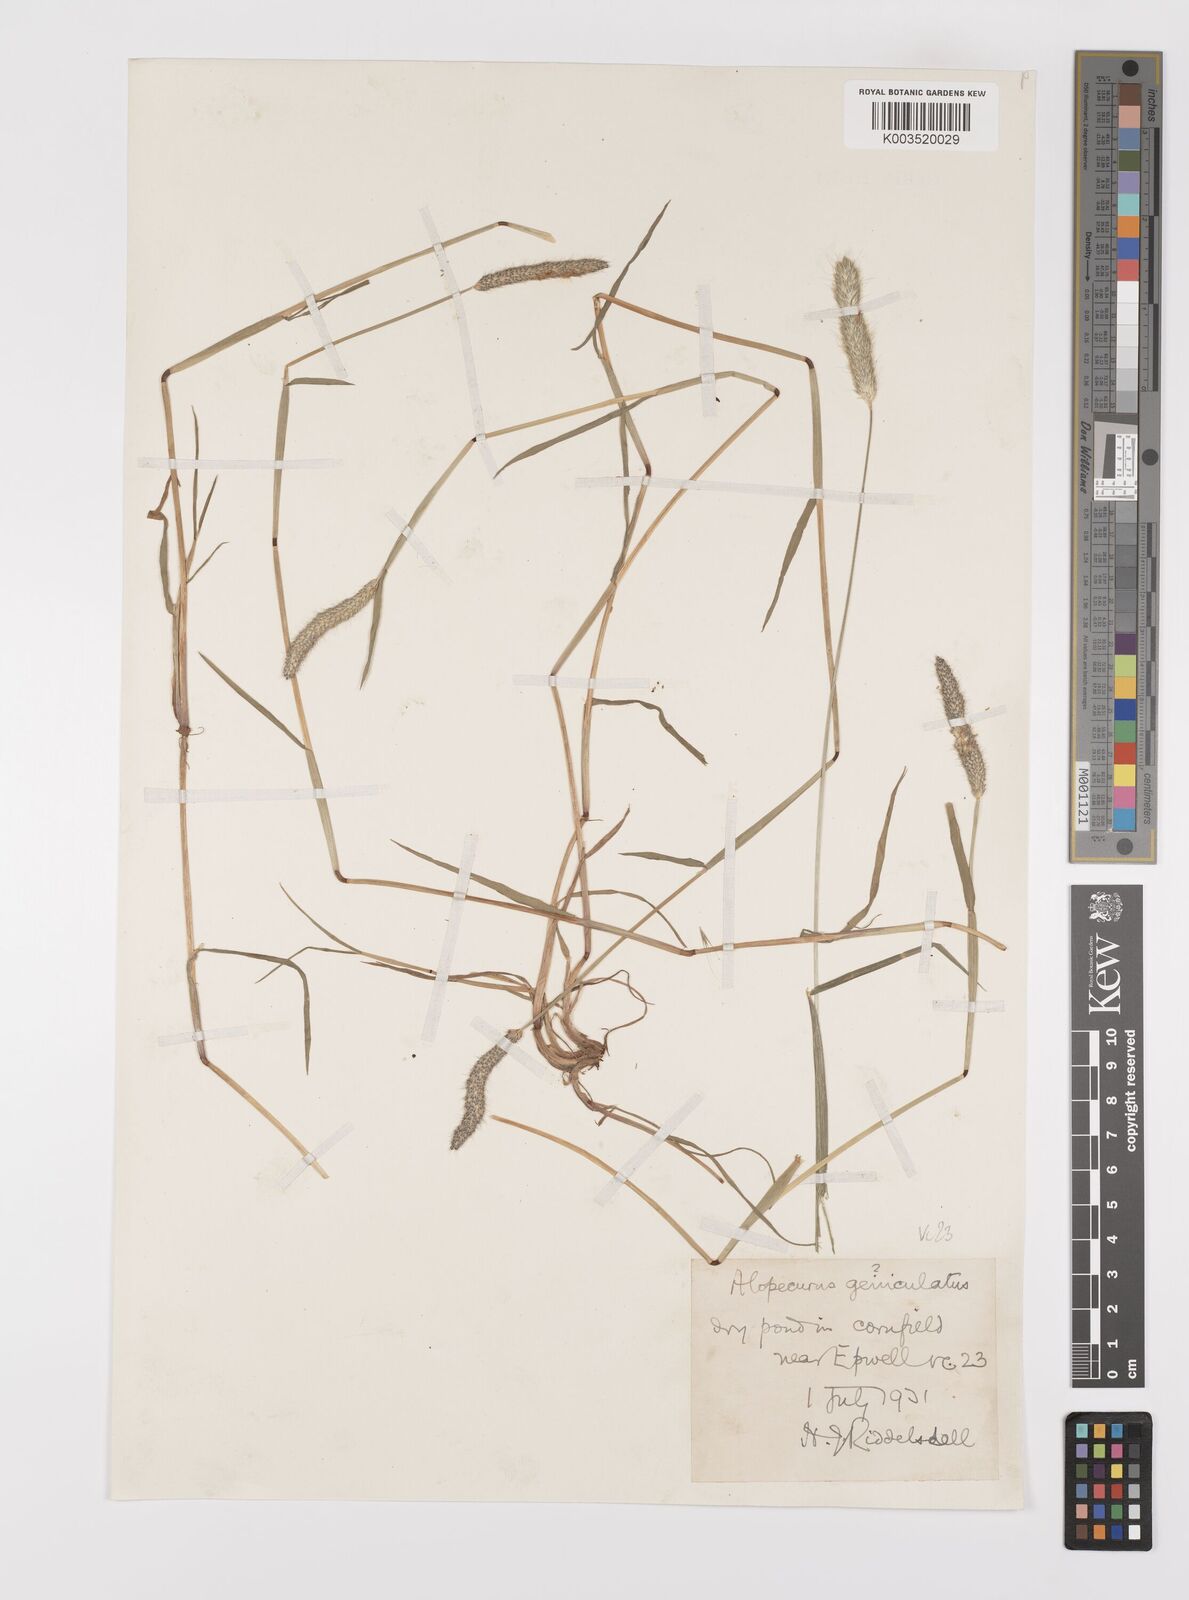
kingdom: Plantae
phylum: Tracheophyta
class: Liliopsida
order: Poales
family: Poaceae
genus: Alopecurus
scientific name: Alopecurus brachystylus
